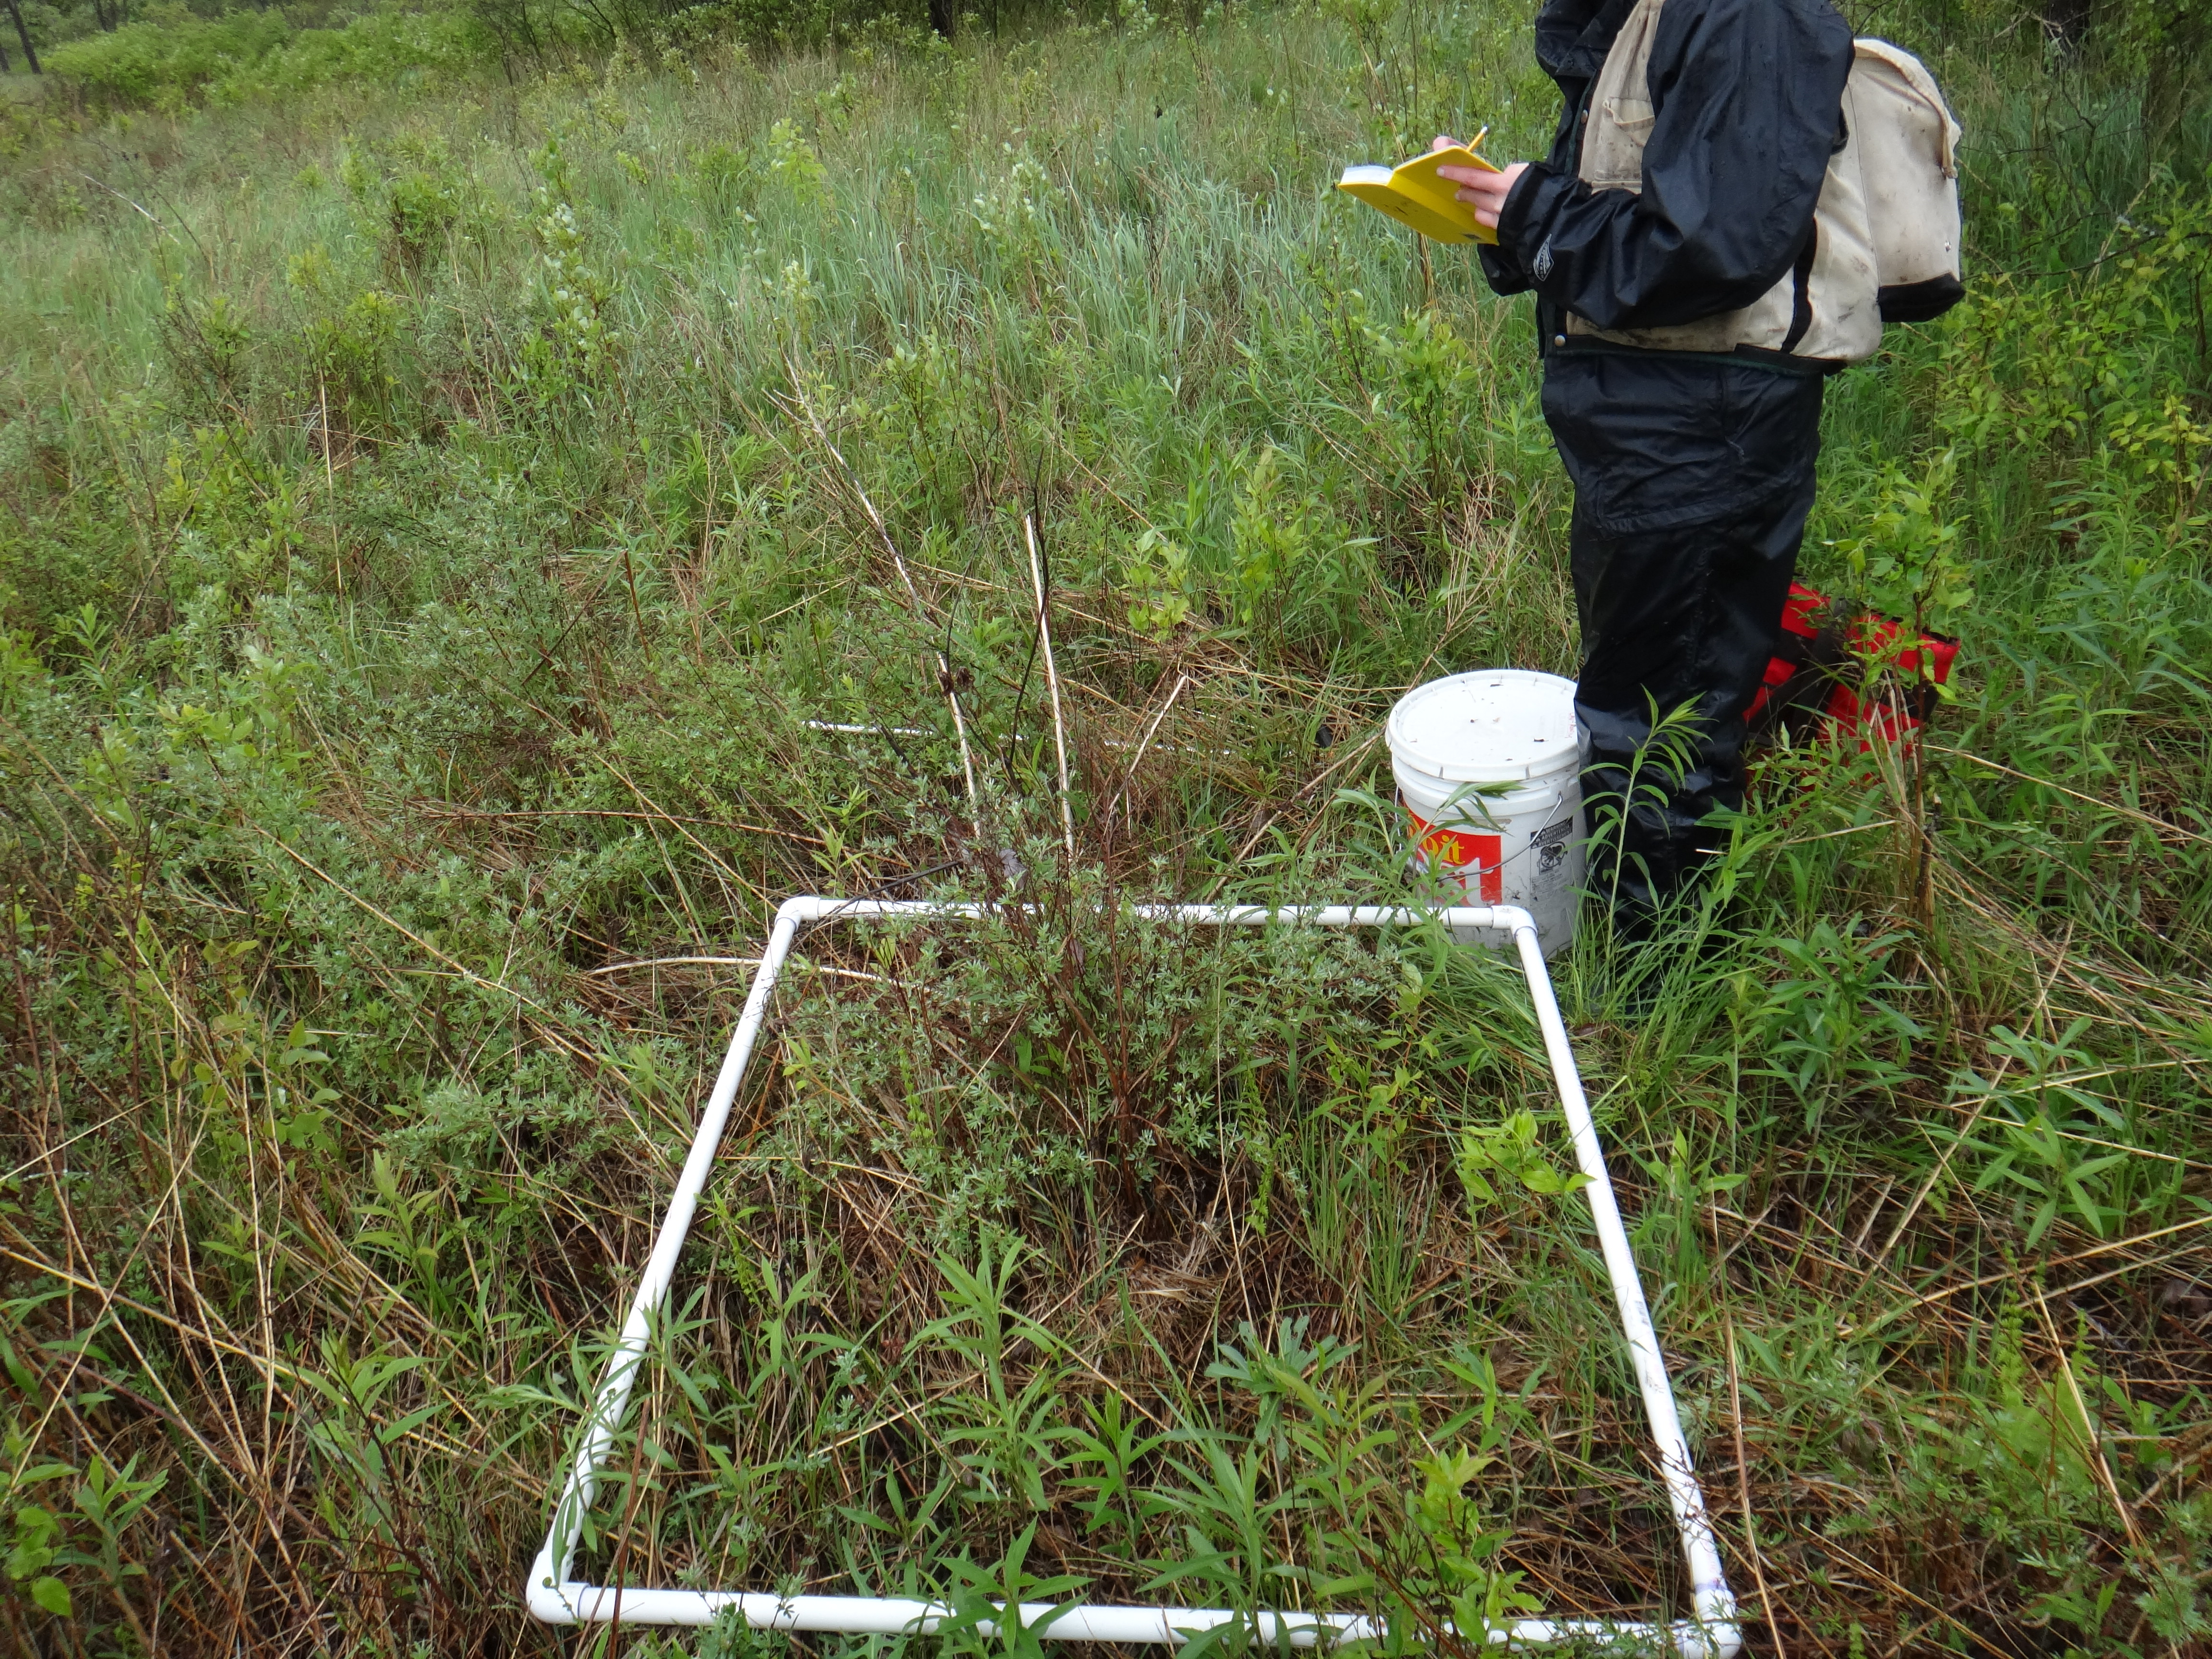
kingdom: Plantae
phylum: Tracheophyta
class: Magnoliopsida
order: Cornales
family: Cornaceae
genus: Cornus
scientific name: Cornus sericea
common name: Red-osier dogwood
